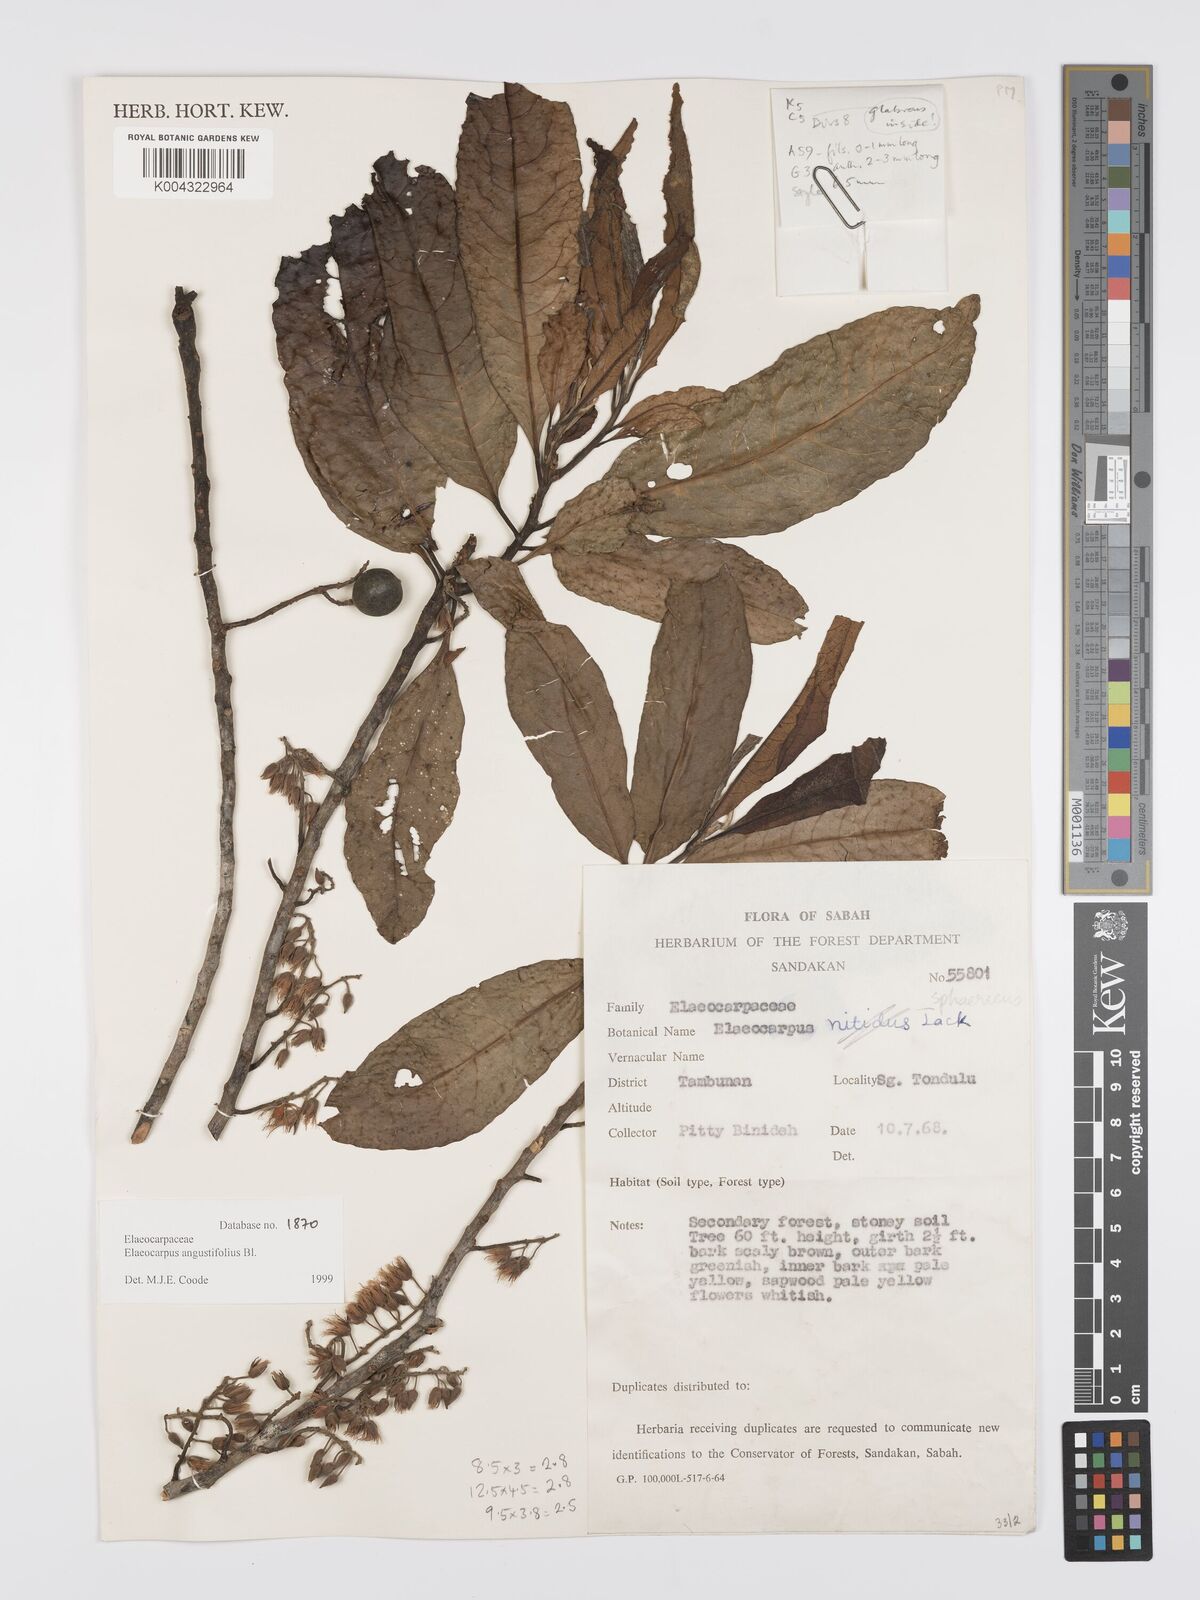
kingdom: Plantae
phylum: Tracheophyta
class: Magnoliopsida
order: Oxalidales
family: Elaeocarpaceae
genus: Elaeocarpus
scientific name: Elaeocarpus
